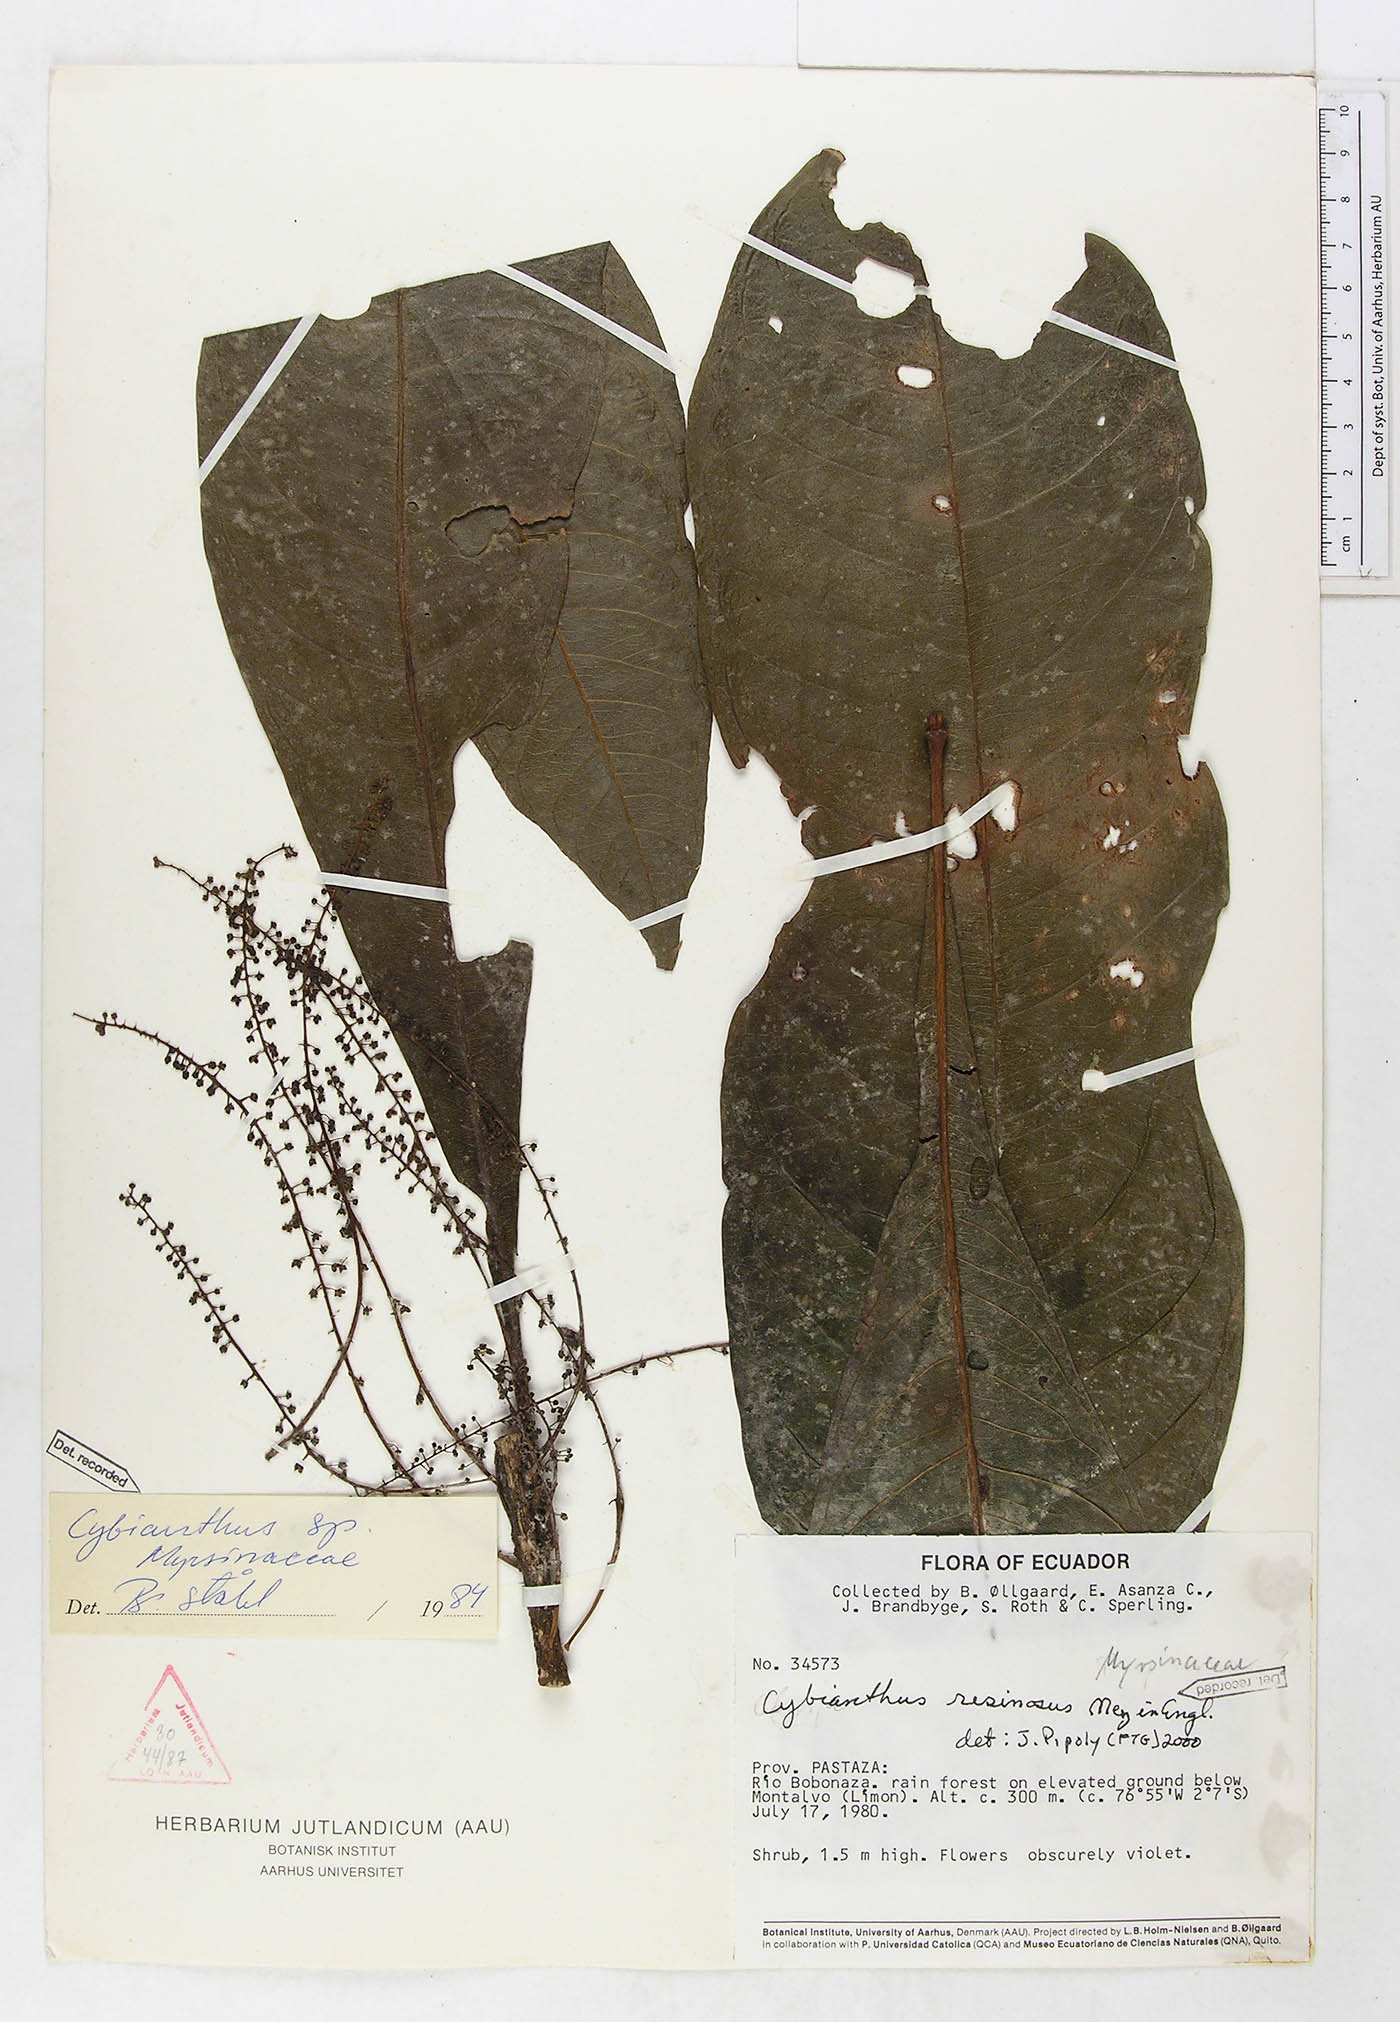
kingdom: Plantae
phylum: Tracheophyta
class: Magnoliopsida
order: Ericales
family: Primulaceae
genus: Cybianthus
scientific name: Cybianthus resinosus
